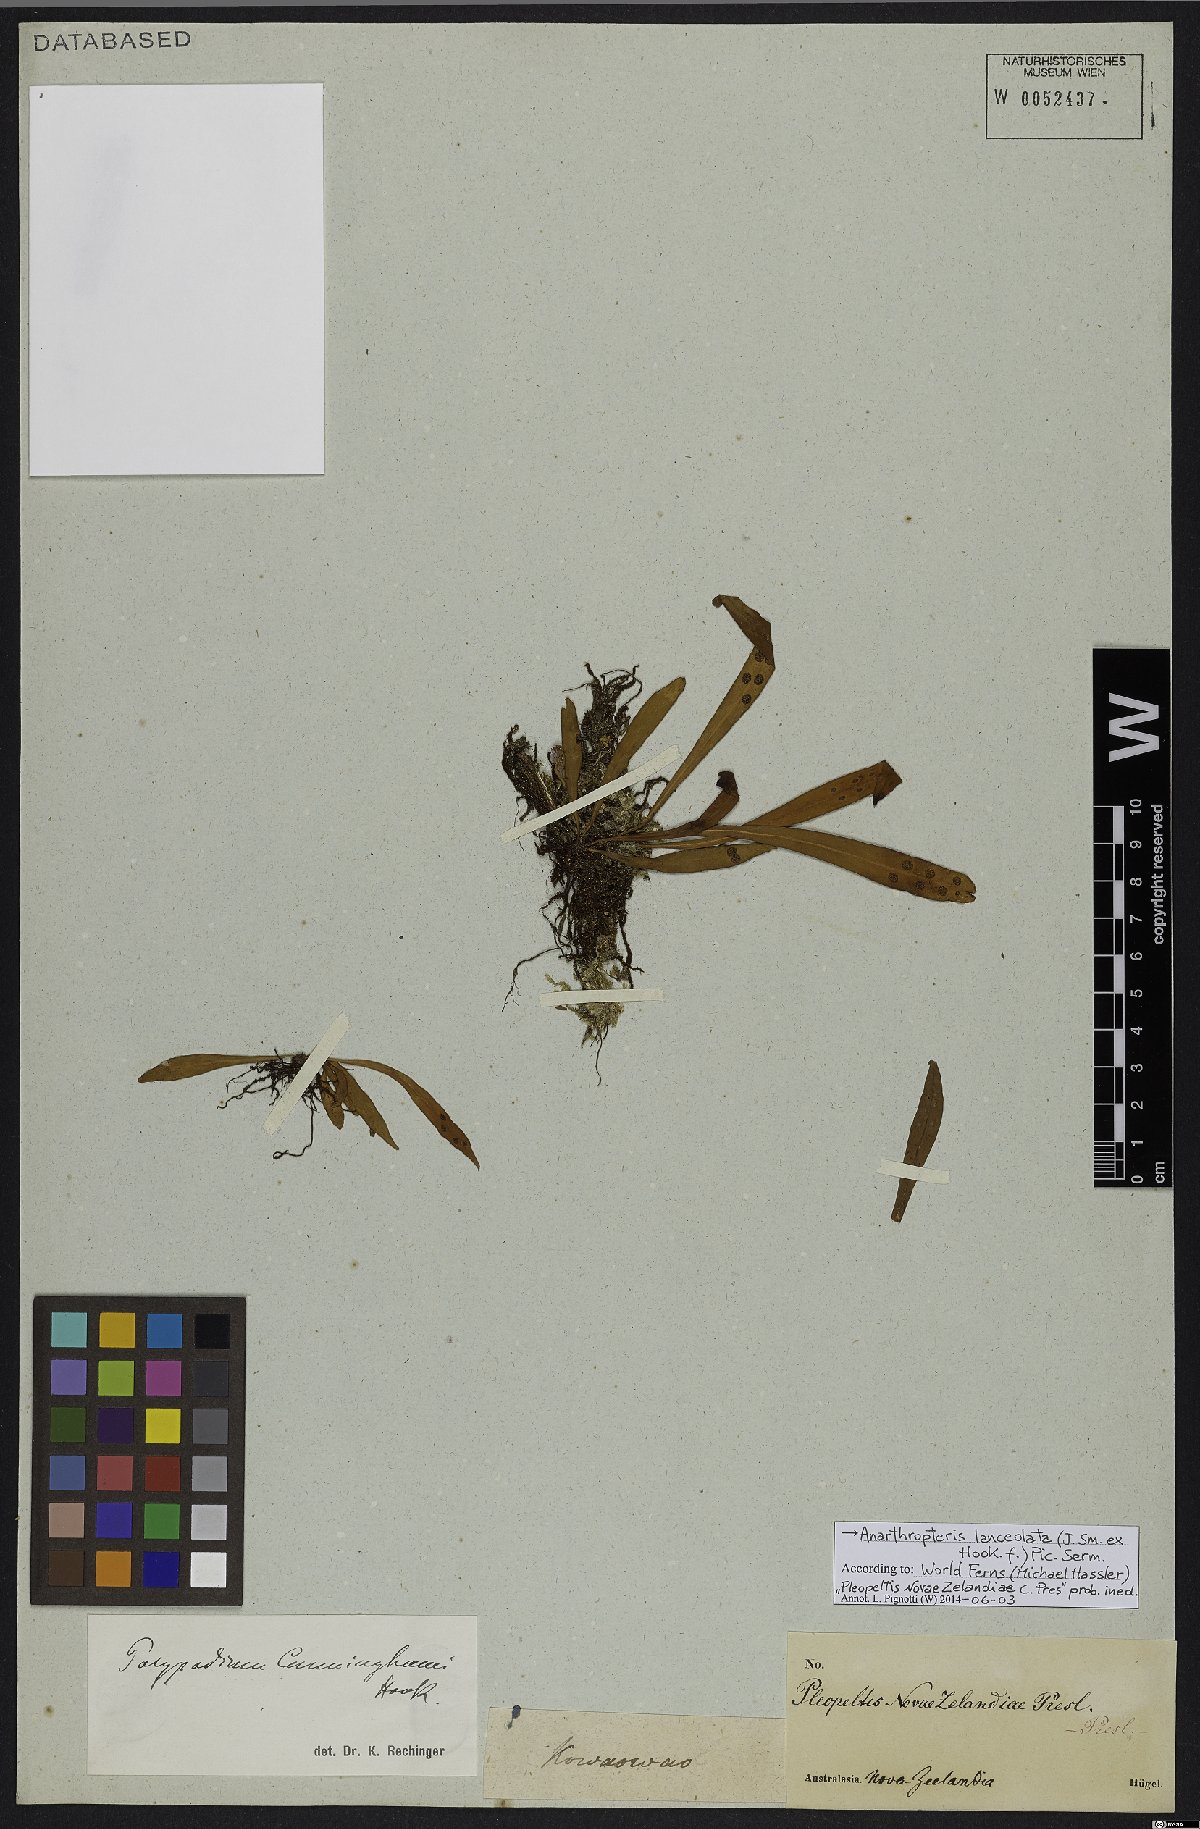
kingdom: Plantae
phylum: Tracheophyta
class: Polypodiopsida
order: Polypodiales
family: Polypodiaceae
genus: Loxogramme
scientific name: Loxogramme dictyopteris
